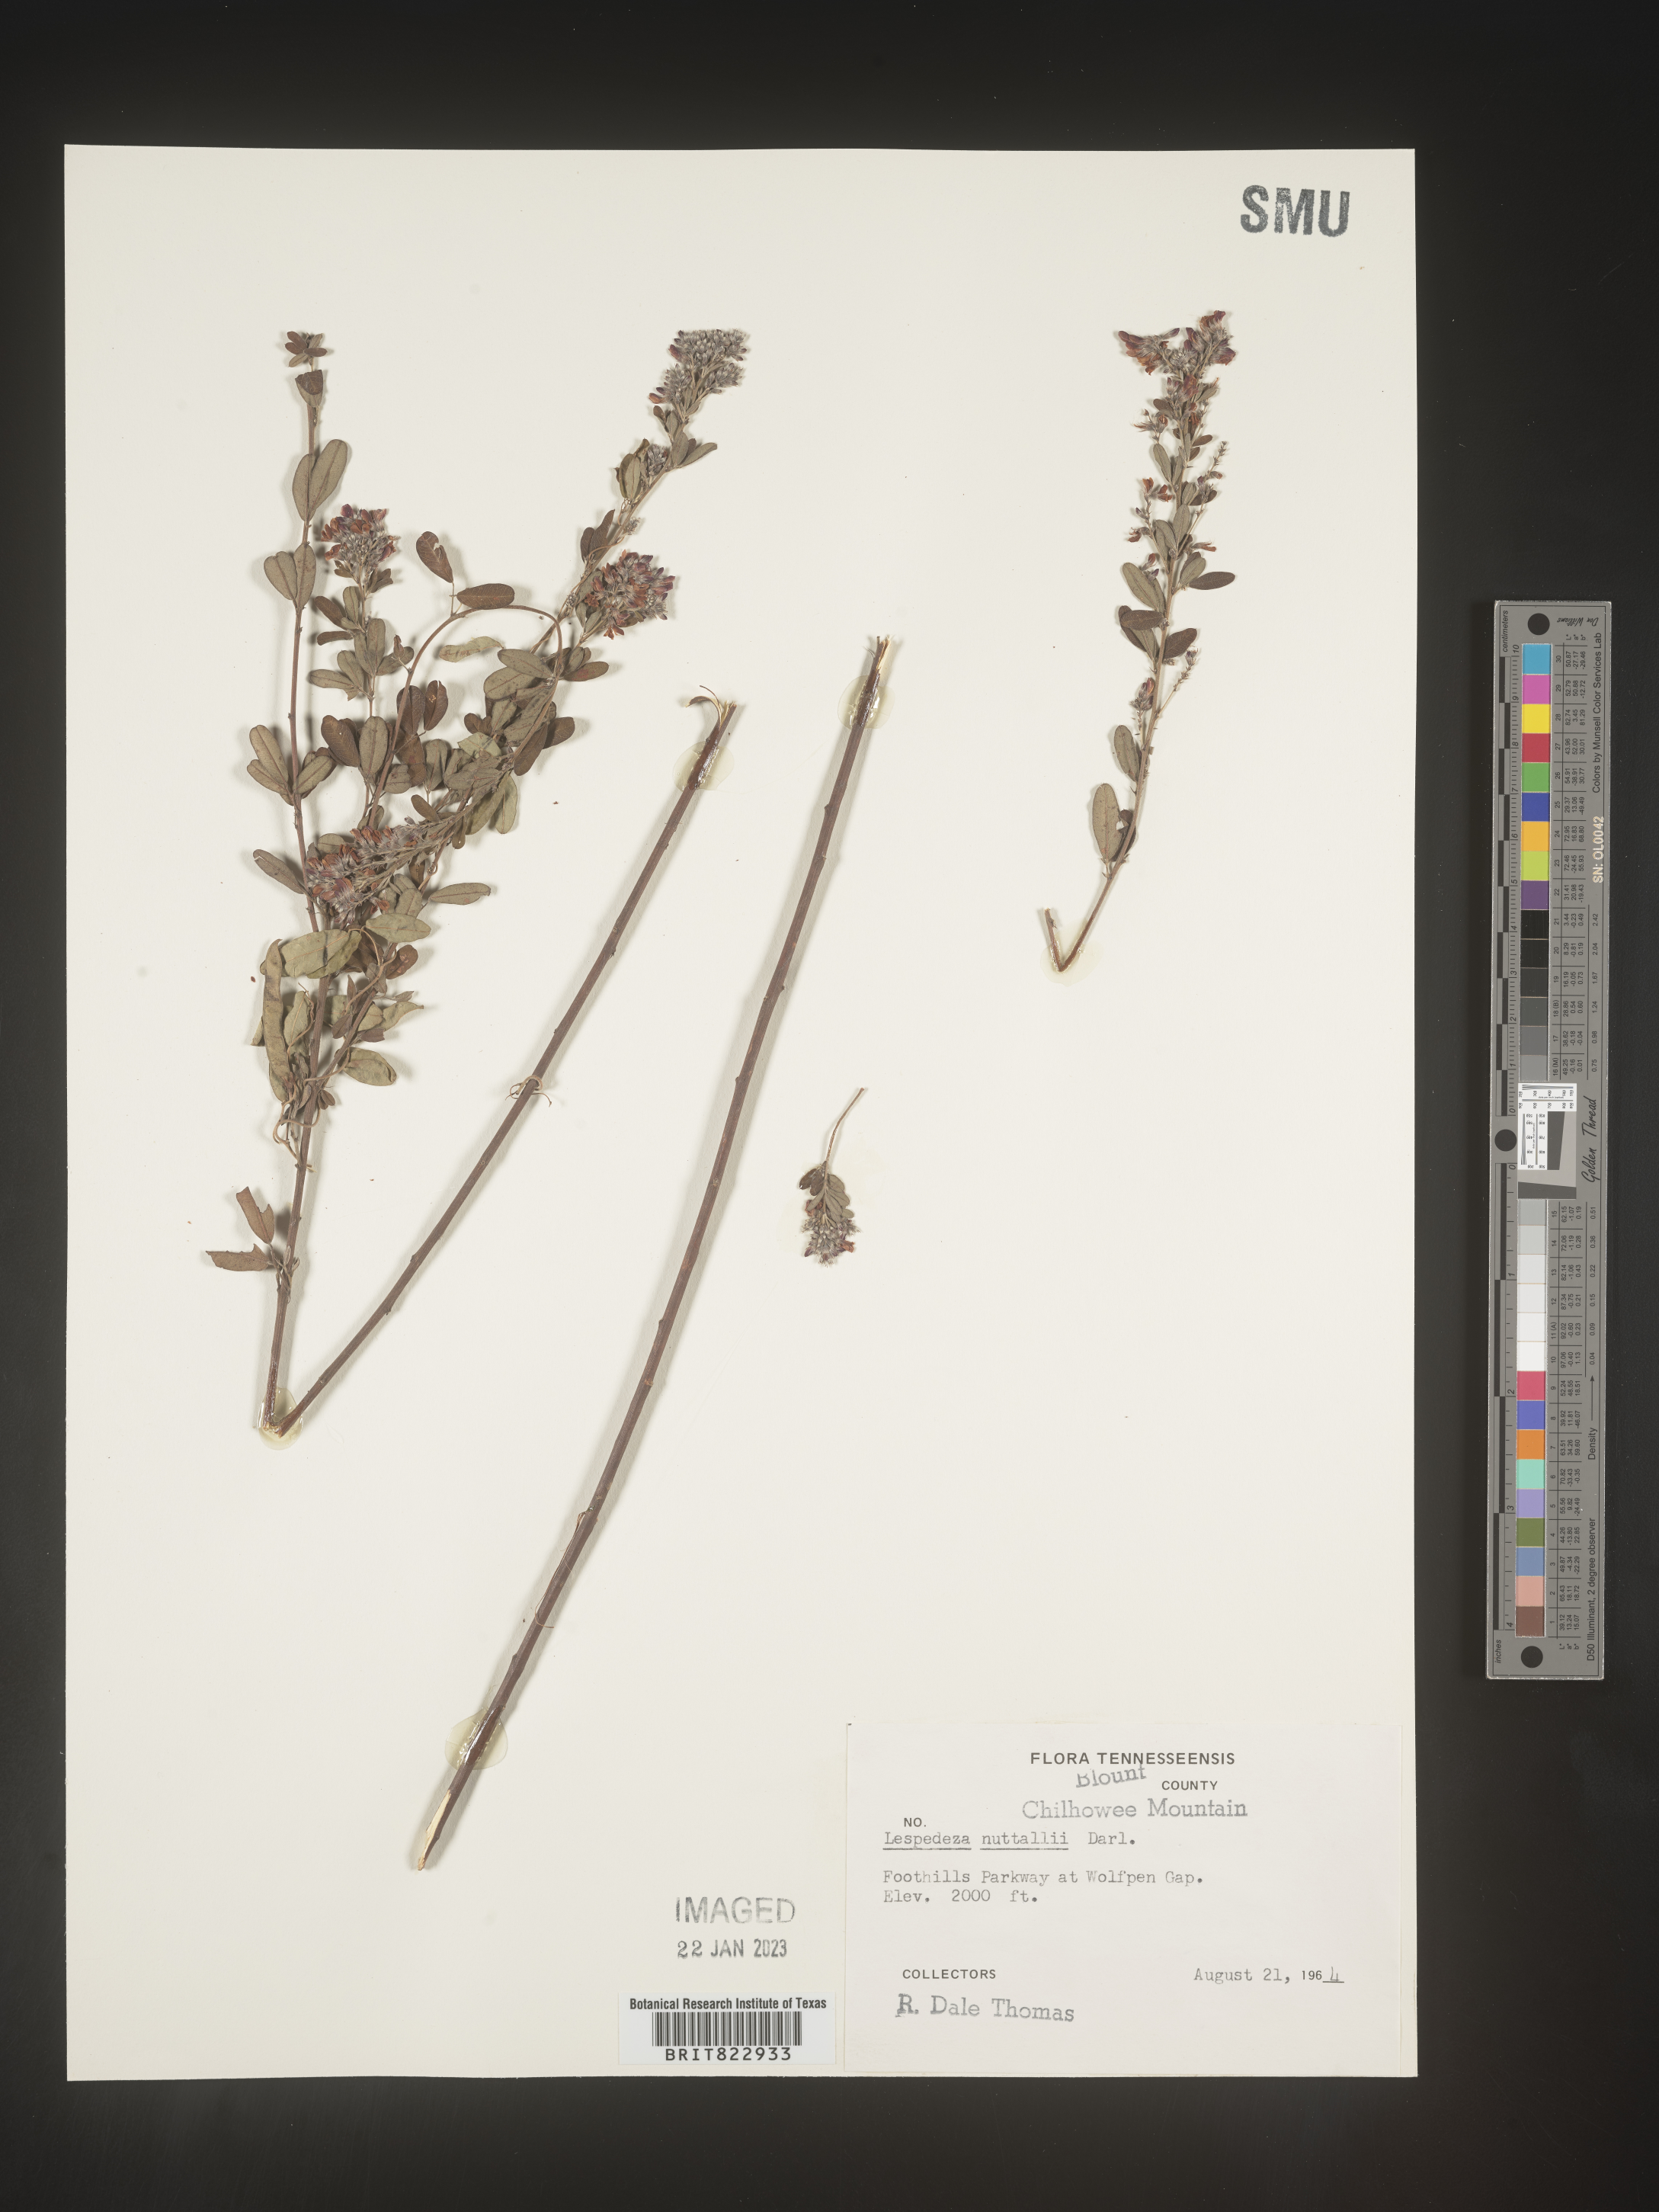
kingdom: Plantae
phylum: Tracheophyta
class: Magnoliopsida
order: Fabales
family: Fabaceae
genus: Lespedeza
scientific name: Lespedeza
